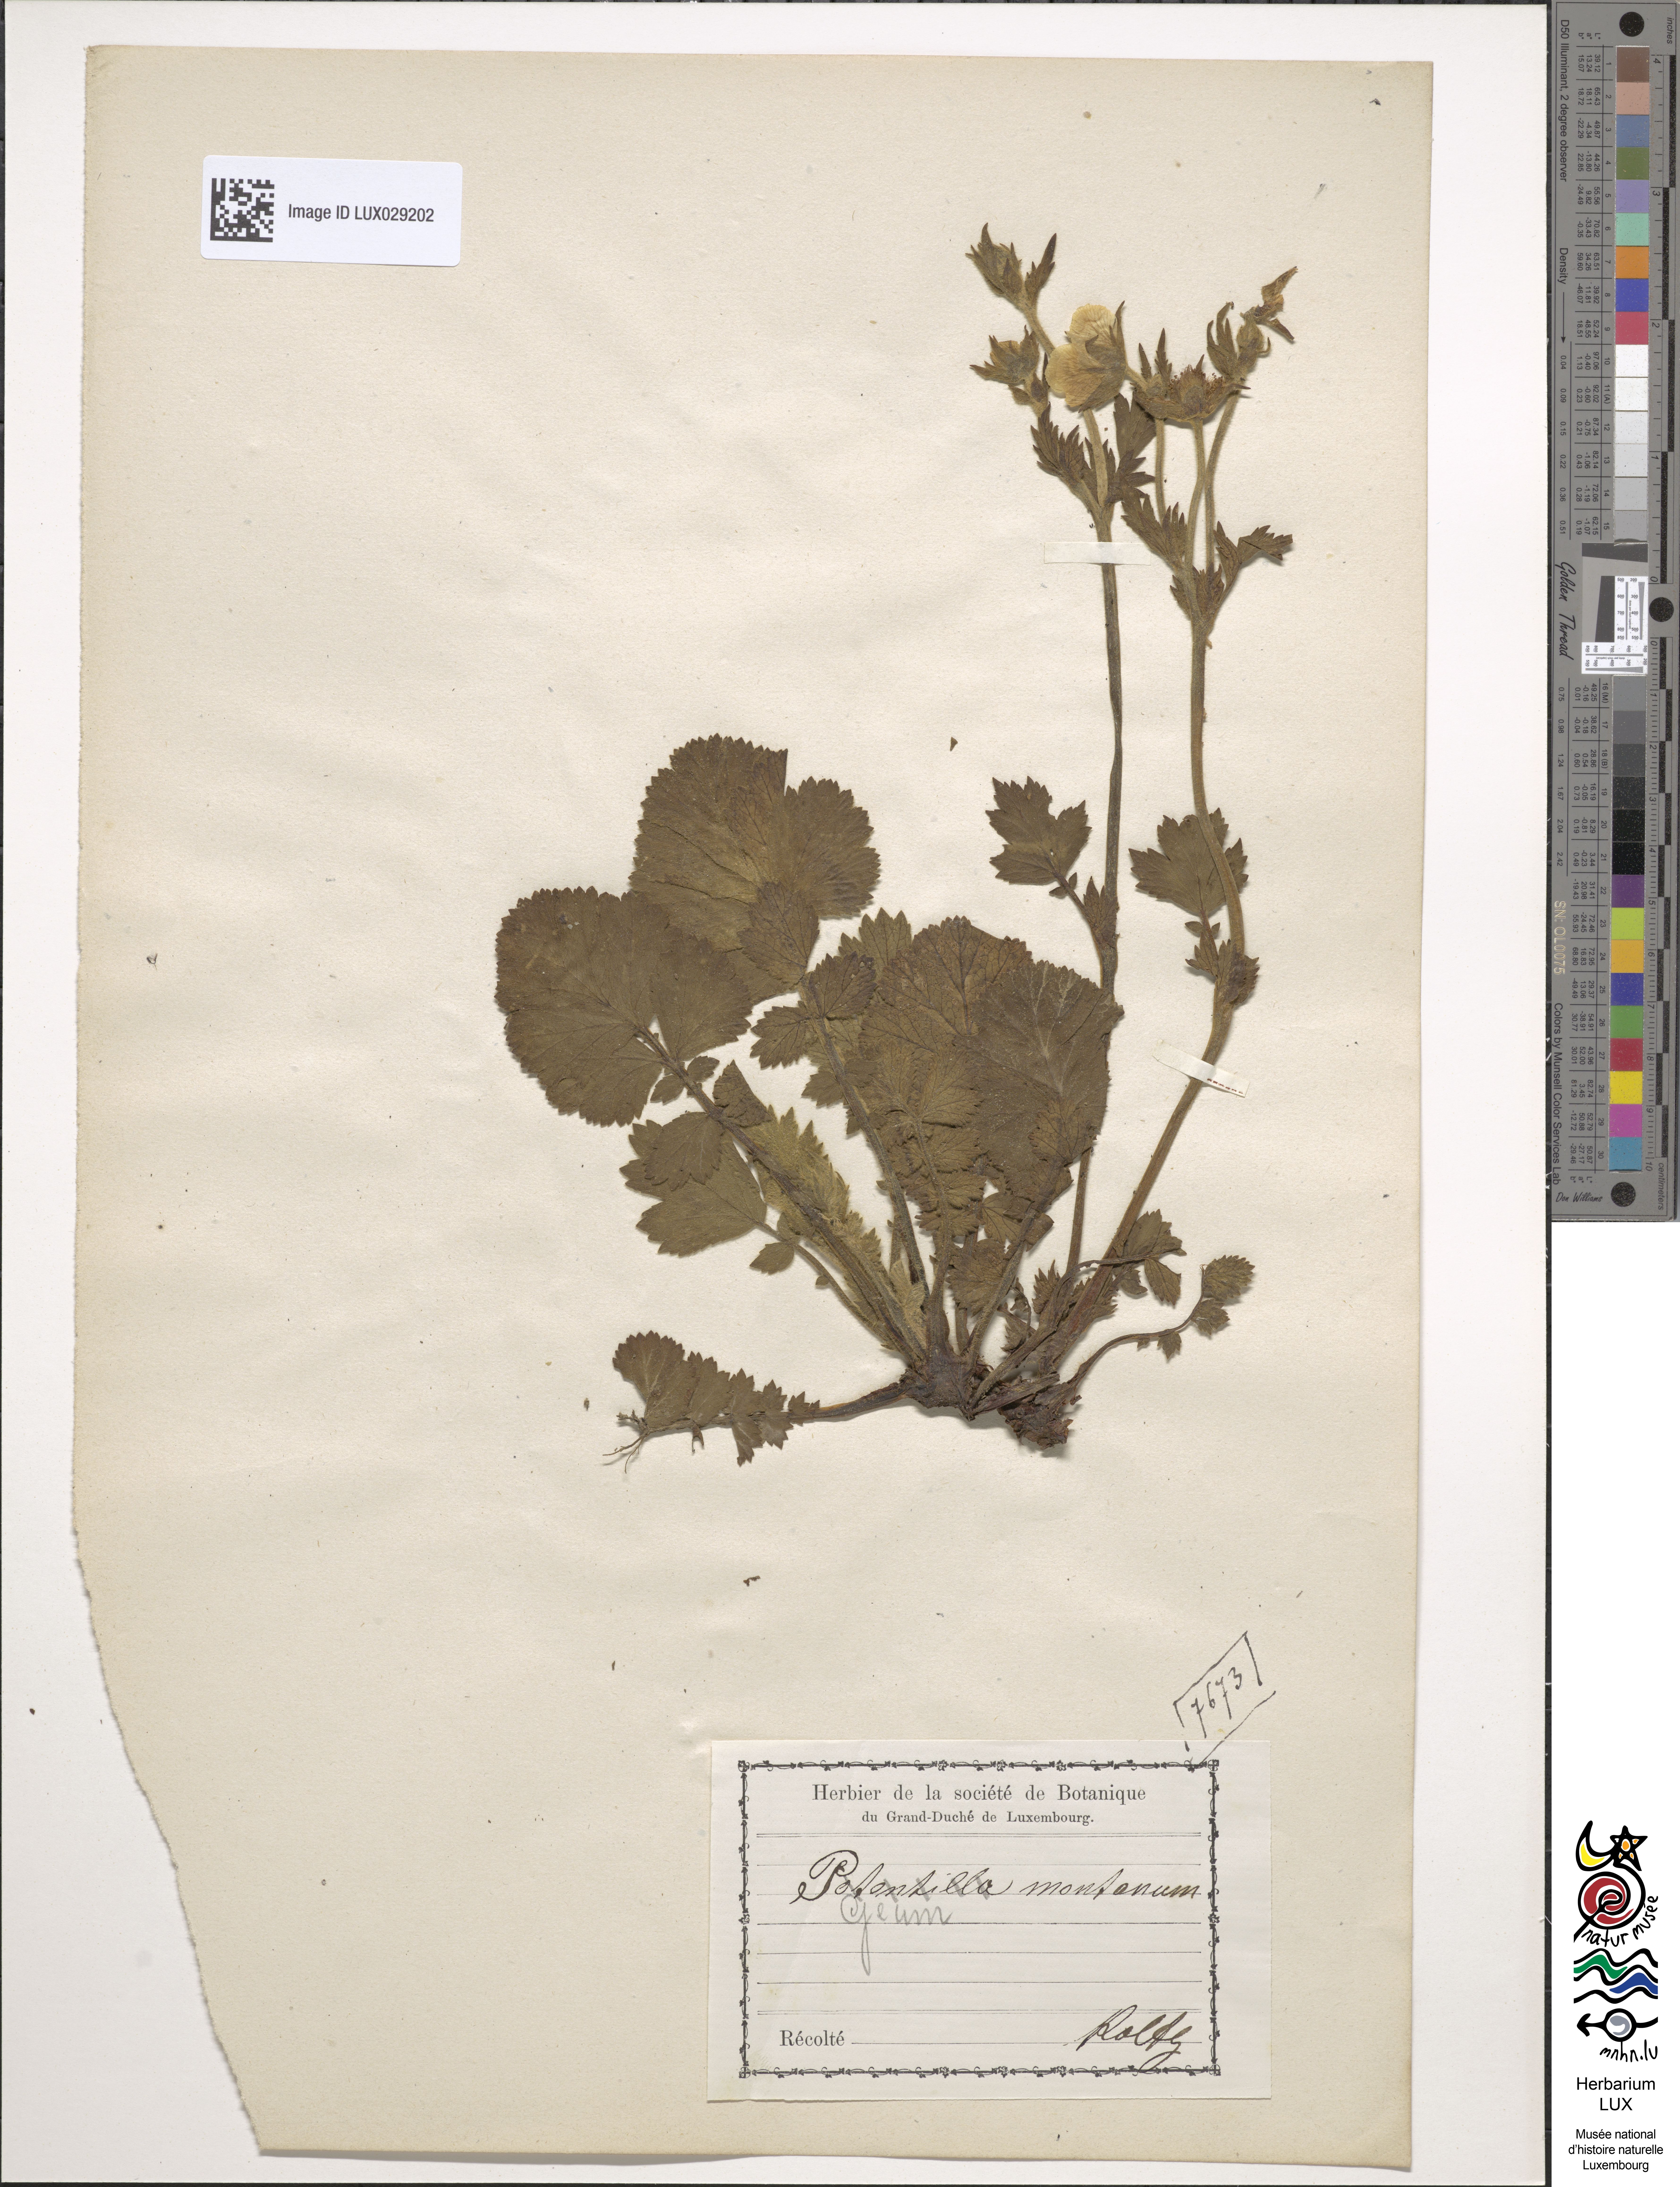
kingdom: Plantae
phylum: Tracheophyta
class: Magnoliopsida
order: Rosales
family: Rosaceae
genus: Geum
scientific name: Geum montanum
